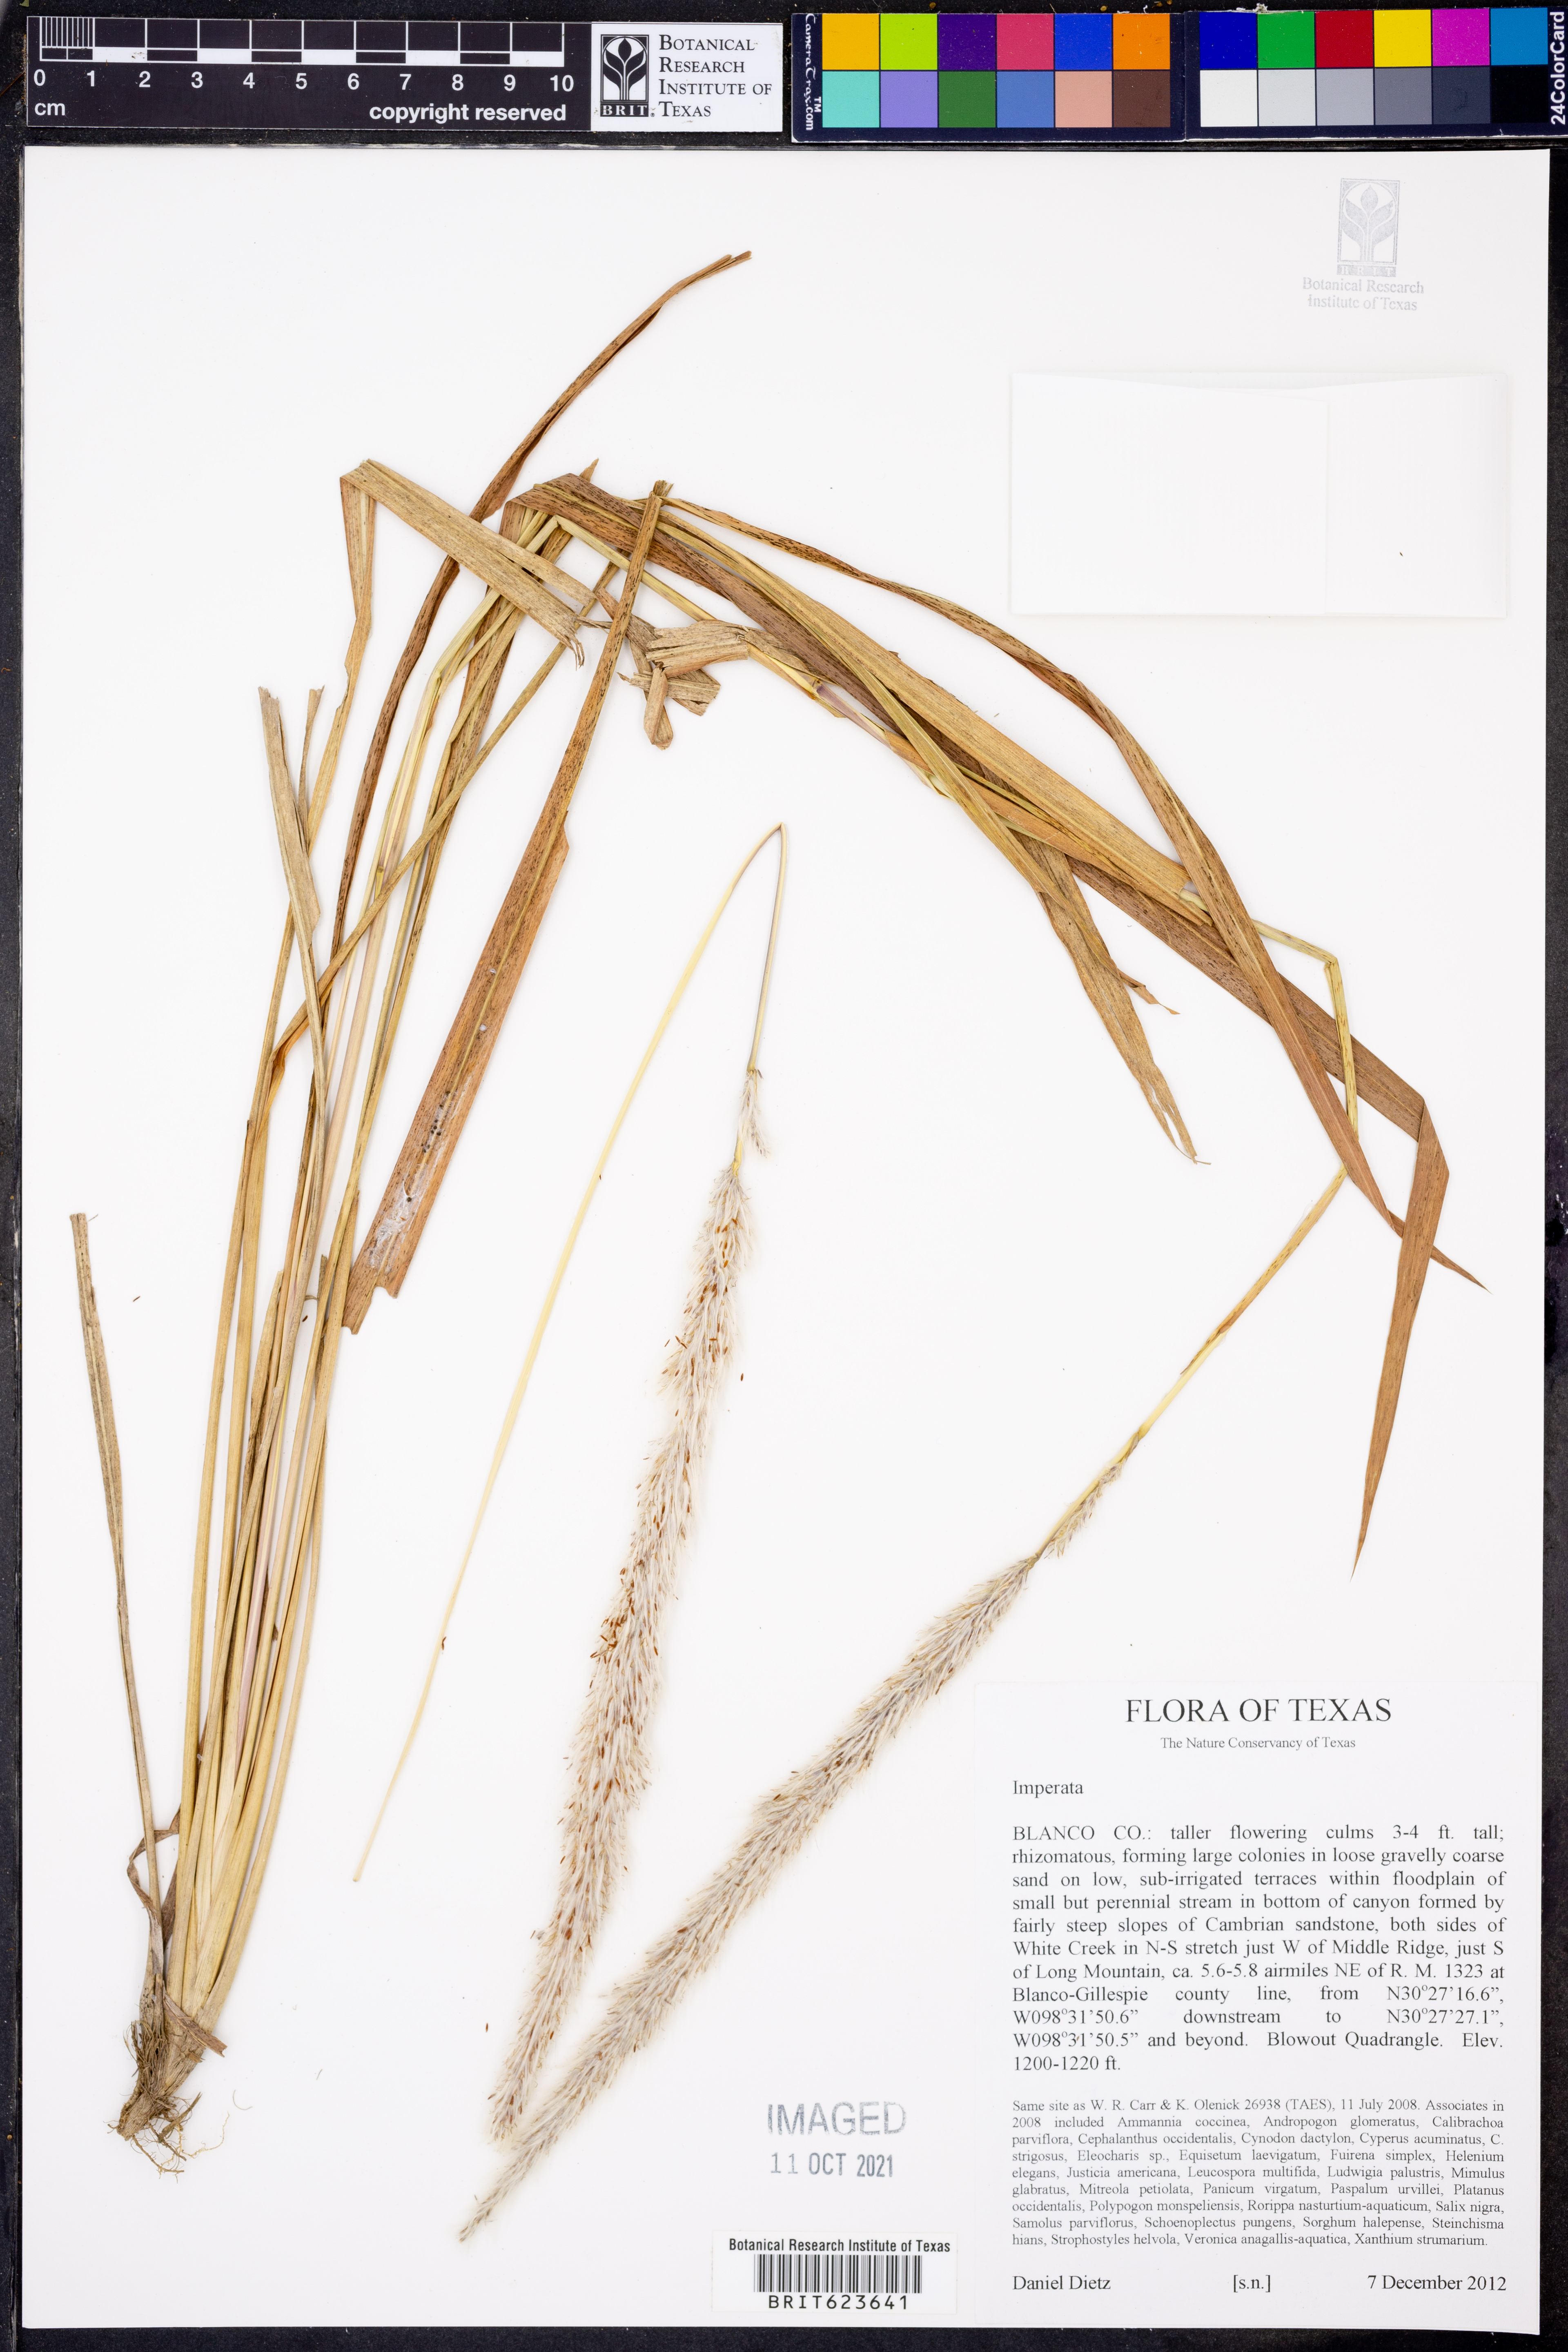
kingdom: Plantae
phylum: Tracheophyta
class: Liliopsida
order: Poales
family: Poaceae
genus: Imperata
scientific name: Imperata
